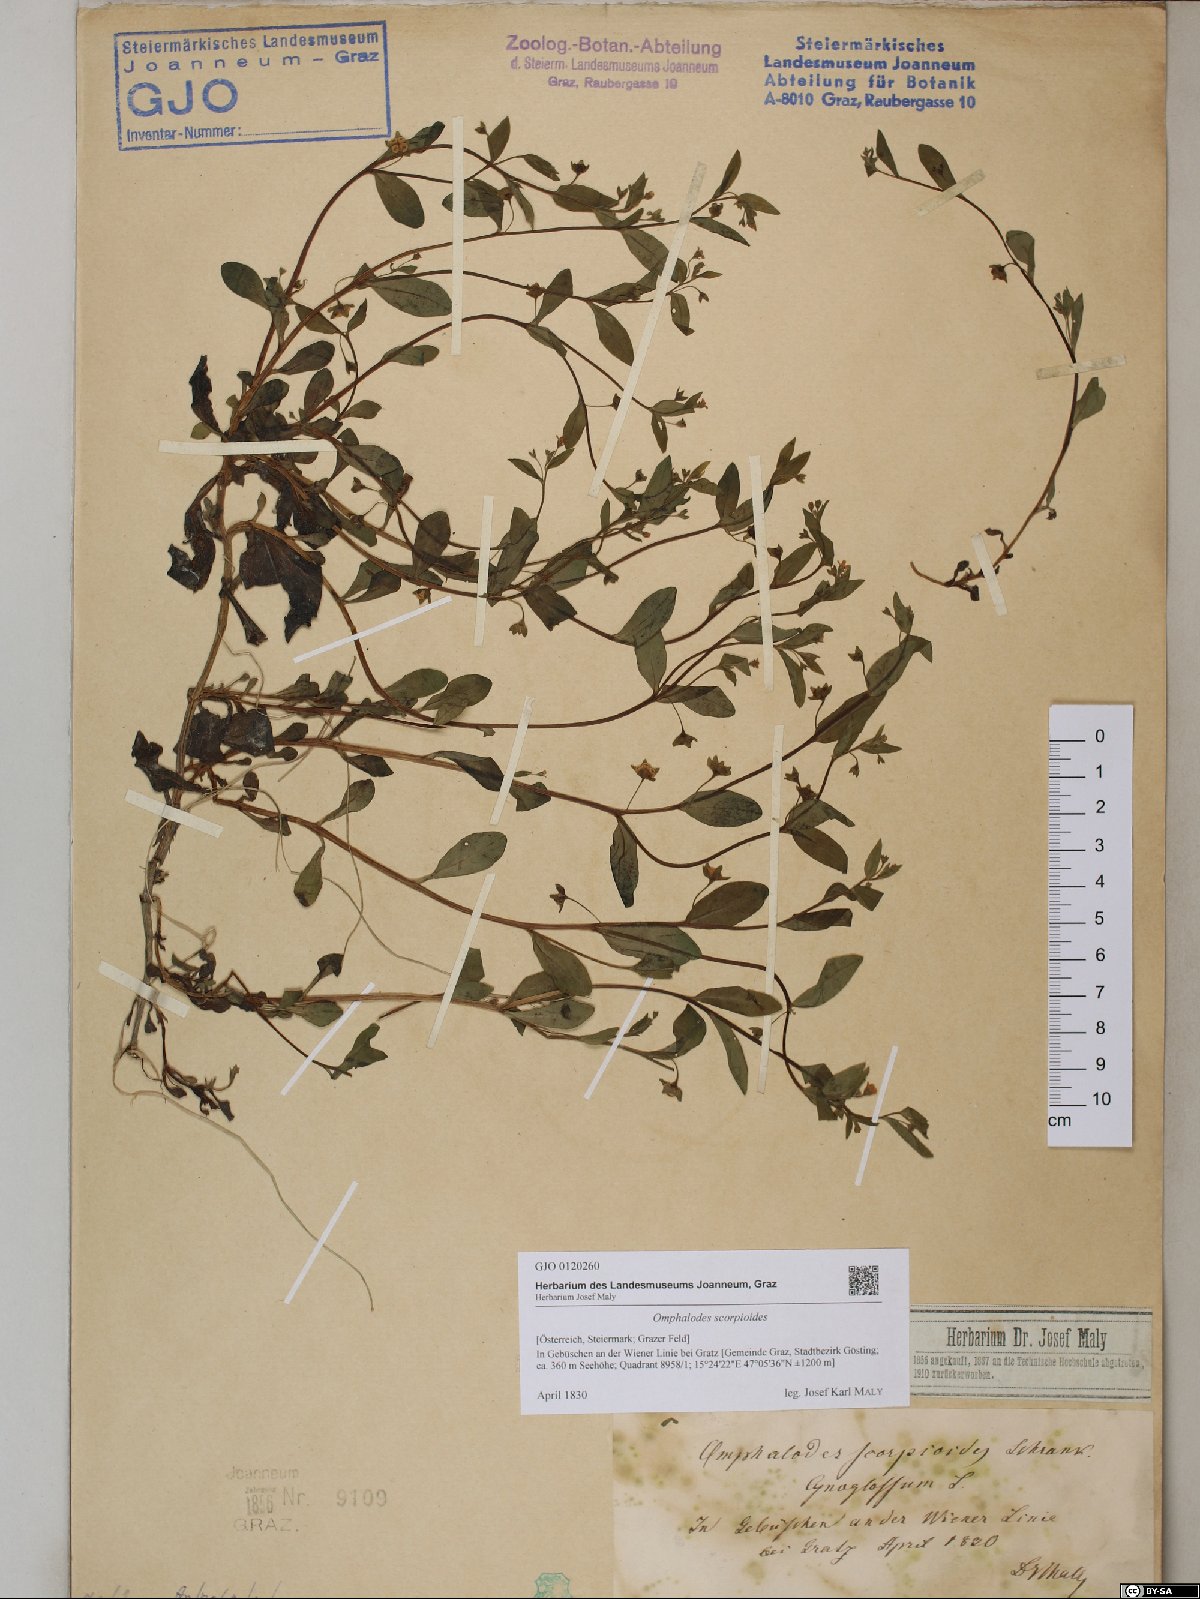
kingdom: Plantae
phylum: Tracheophyta
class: Magnoliopsida
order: Boraginales
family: Boraginaceae
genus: Memoremea
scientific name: Memoremea scorpioides
